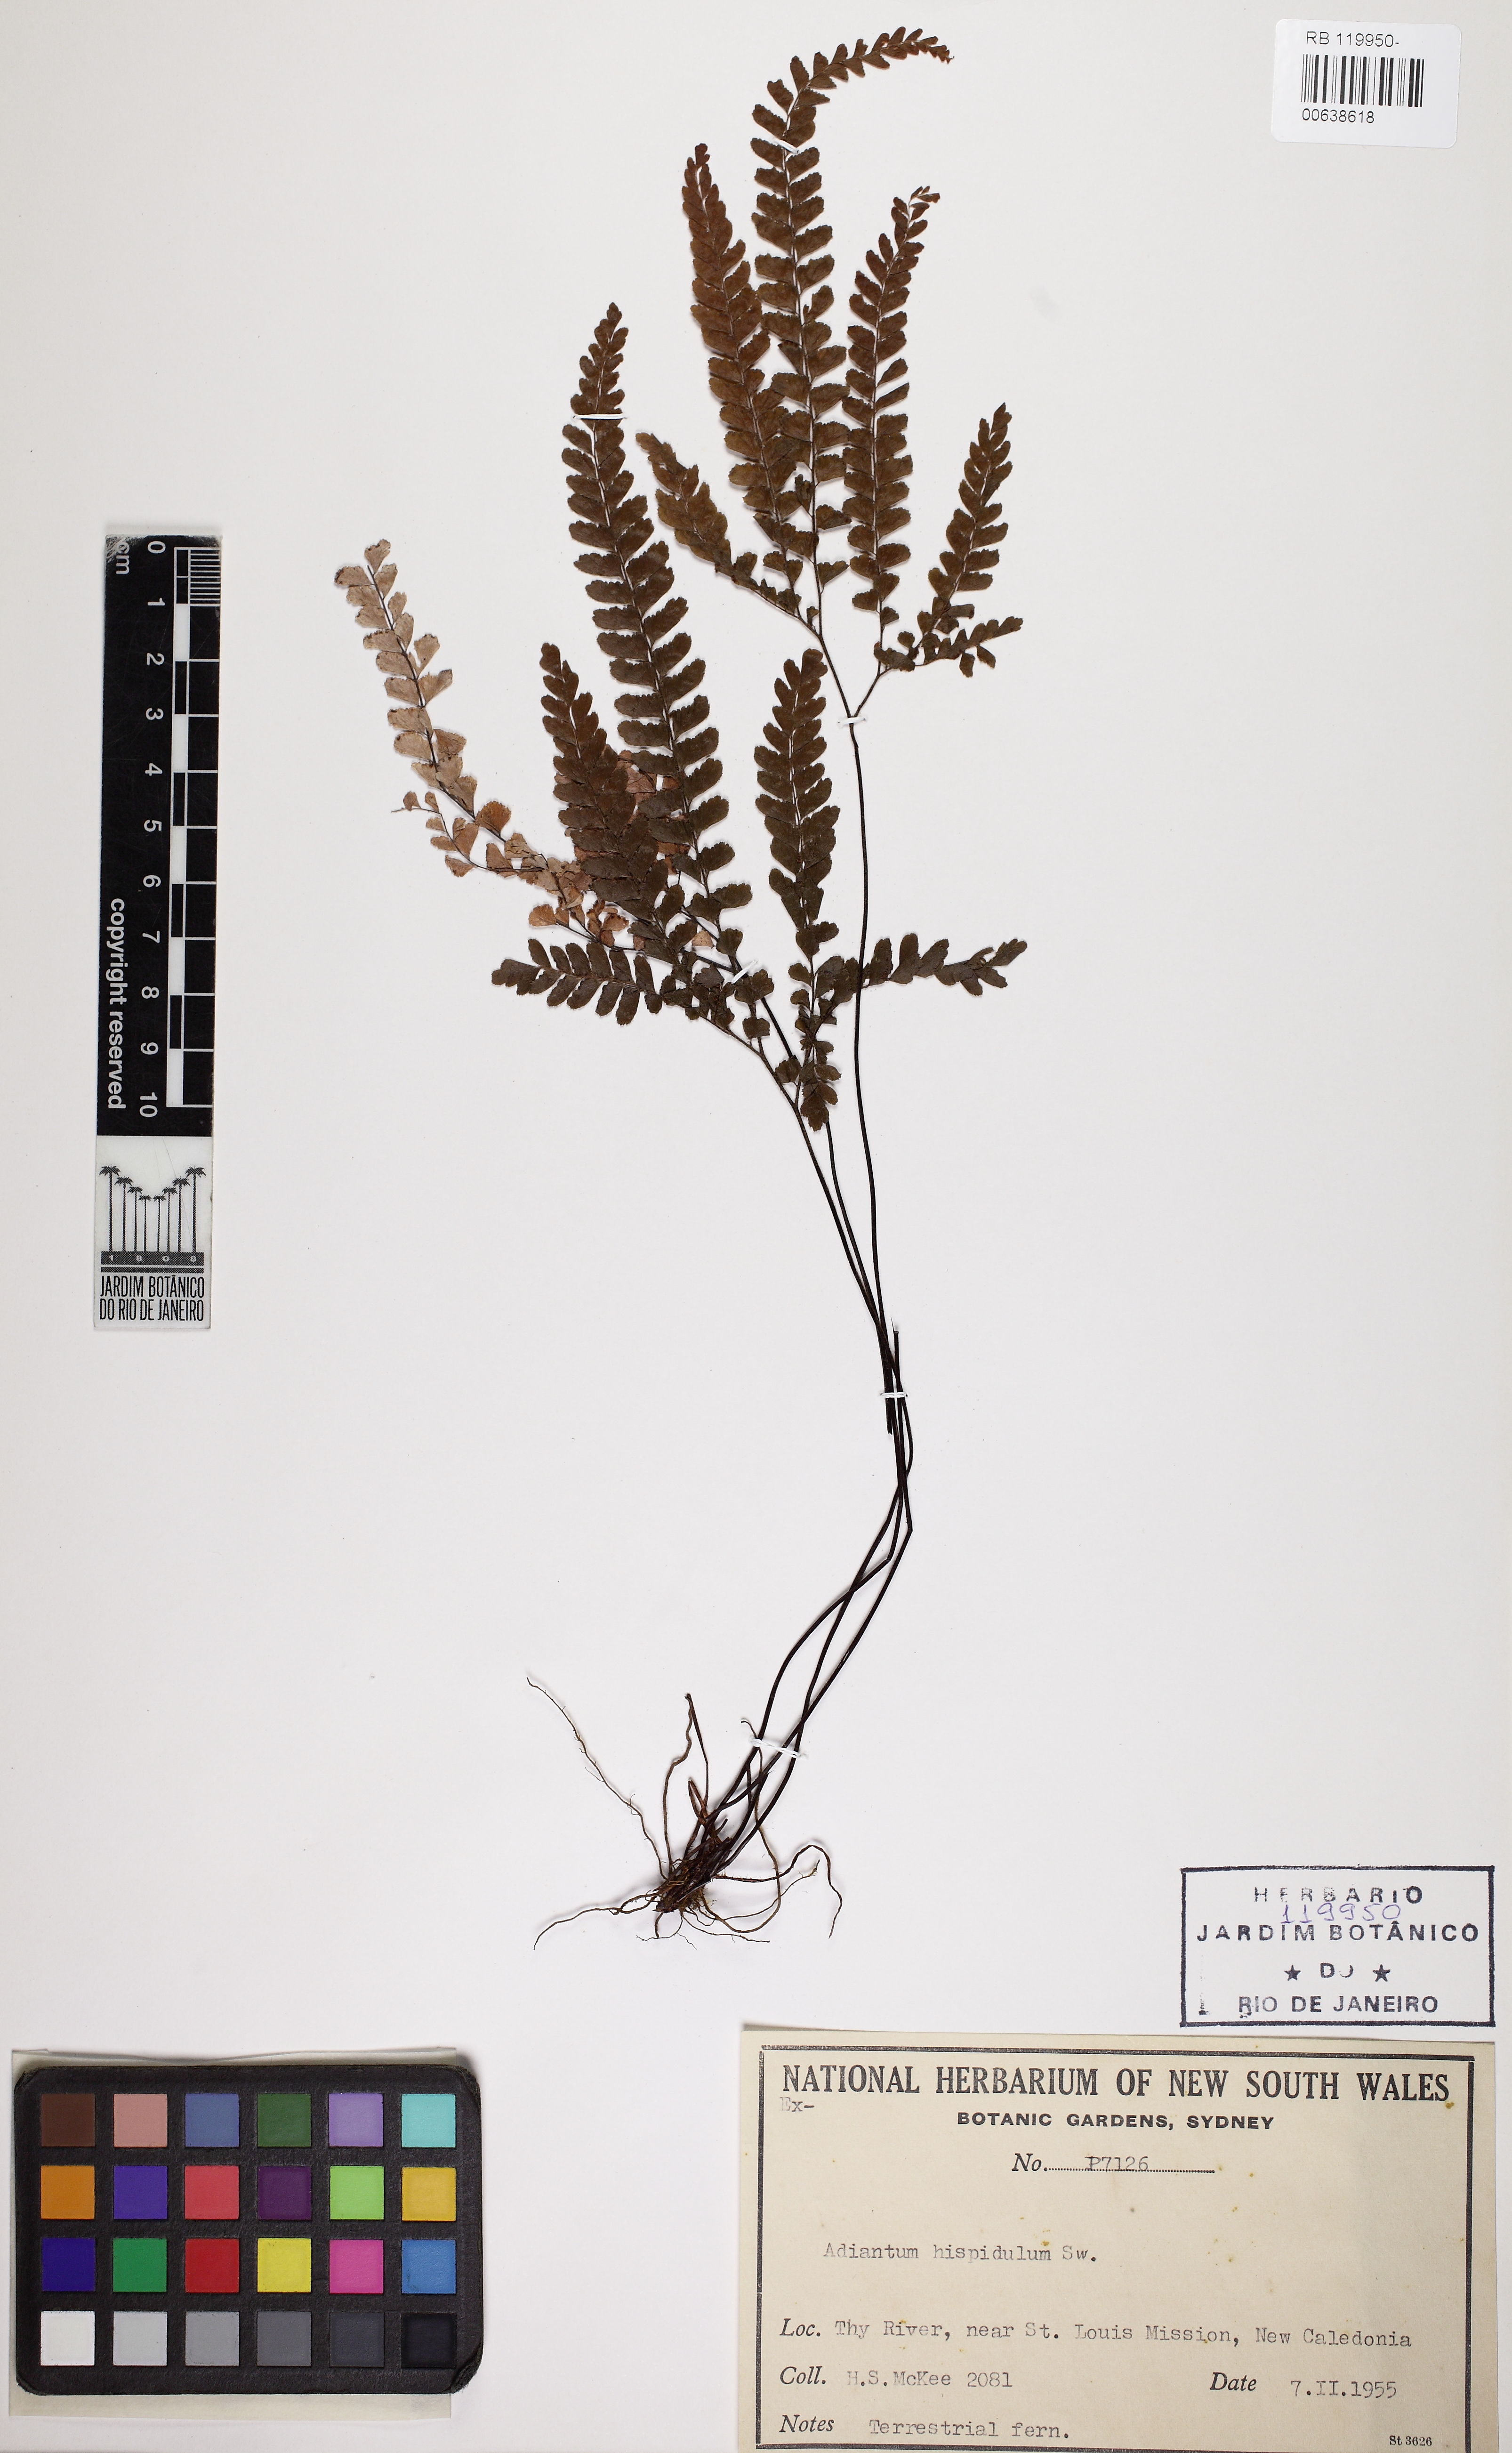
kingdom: Plantae
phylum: Tracheophyta
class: Polypodiopsida
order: Polypodiales
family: Pteridaceae
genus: Adiantum
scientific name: Adiantum hispidulum
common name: Rough maidenhair
